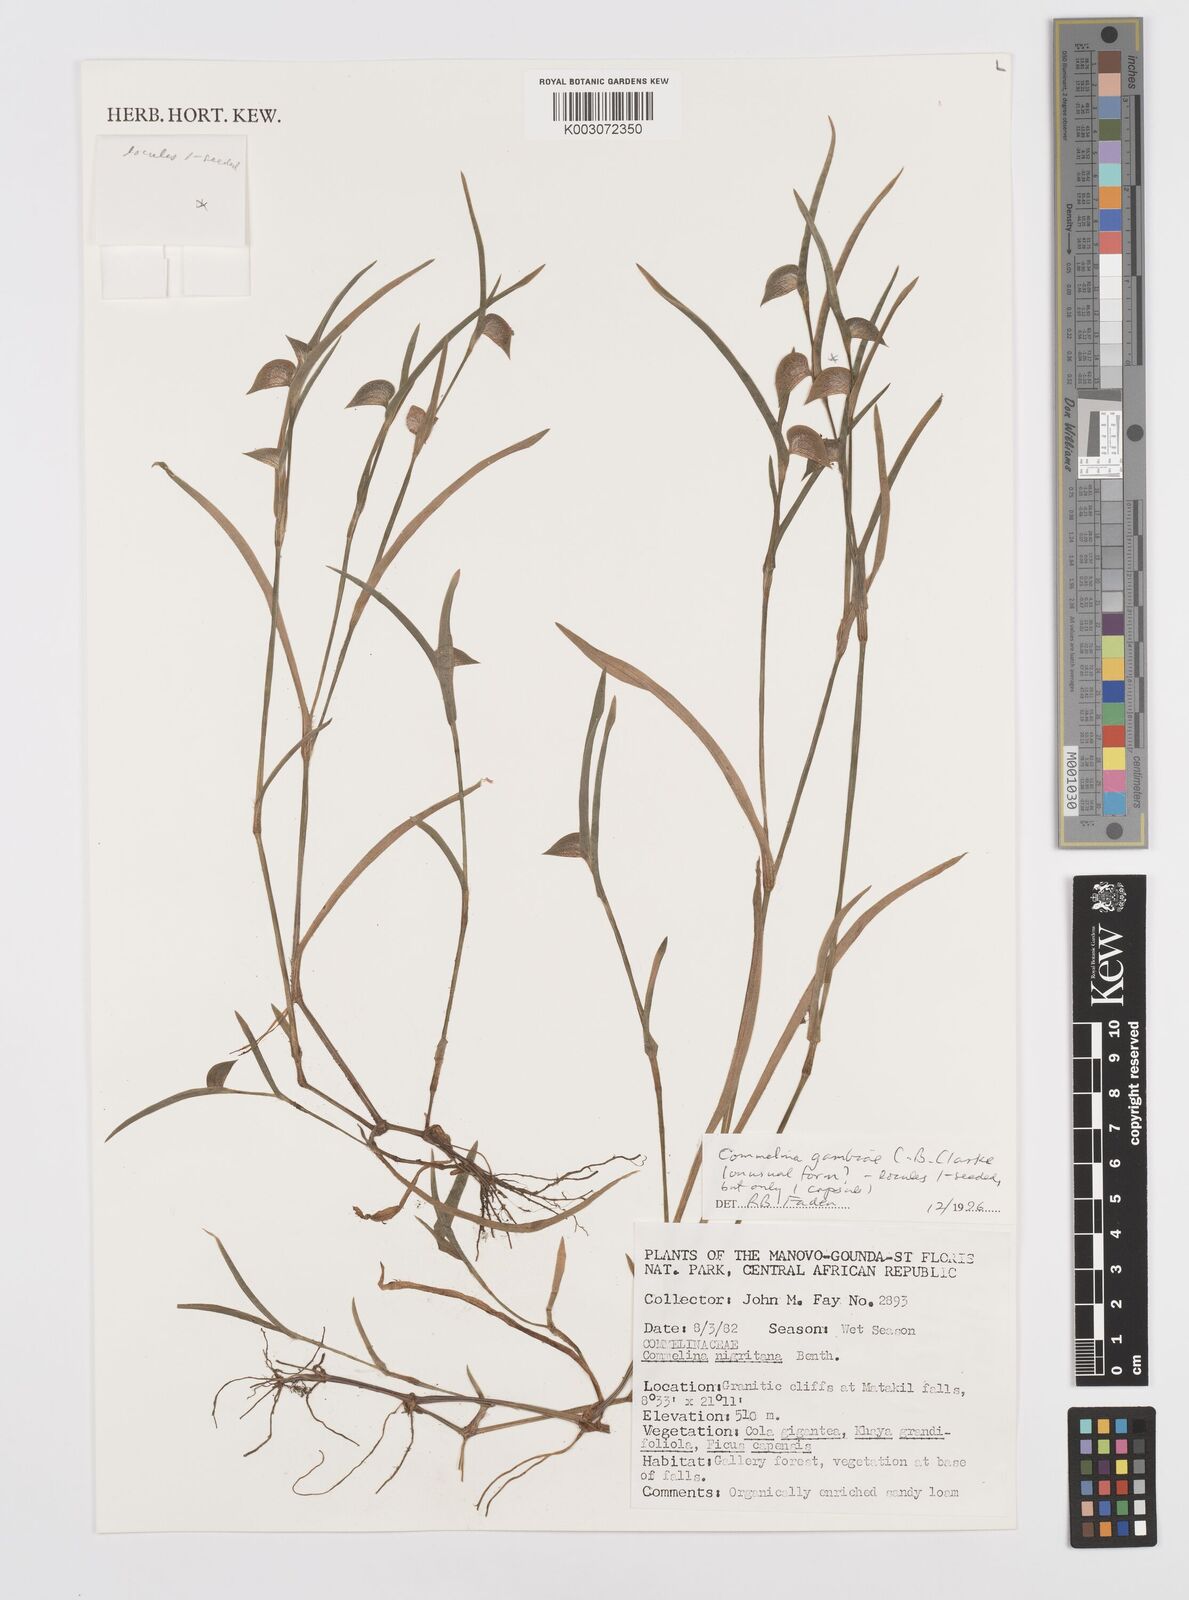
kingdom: Plantae
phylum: Tracheophyta
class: Liliopsida
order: Commelinales
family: Commelinaceae
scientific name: Commelinaceae
